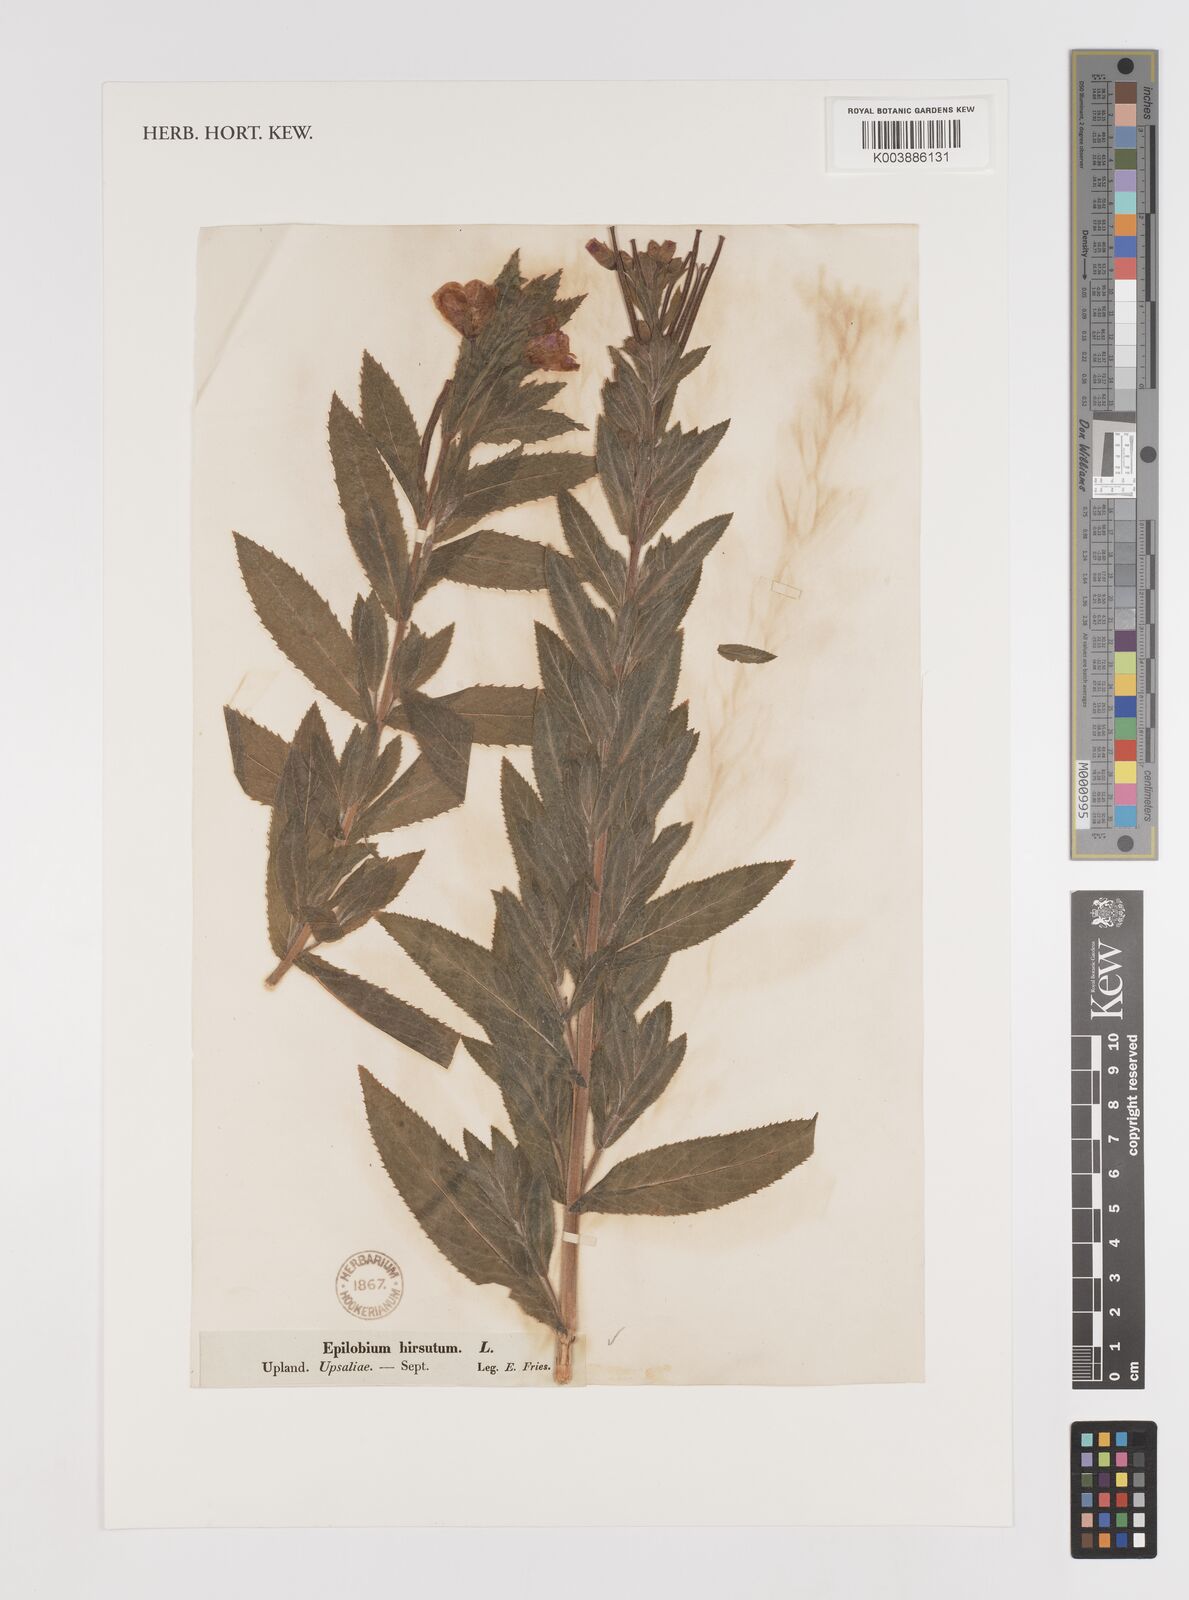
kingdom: Plantae
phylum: Tracheophyta
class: Magnoliopsida
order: Myrtales
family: Onagraceae
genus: Epilobium
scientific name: Epilobium hirsutum
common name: Great willowherb
